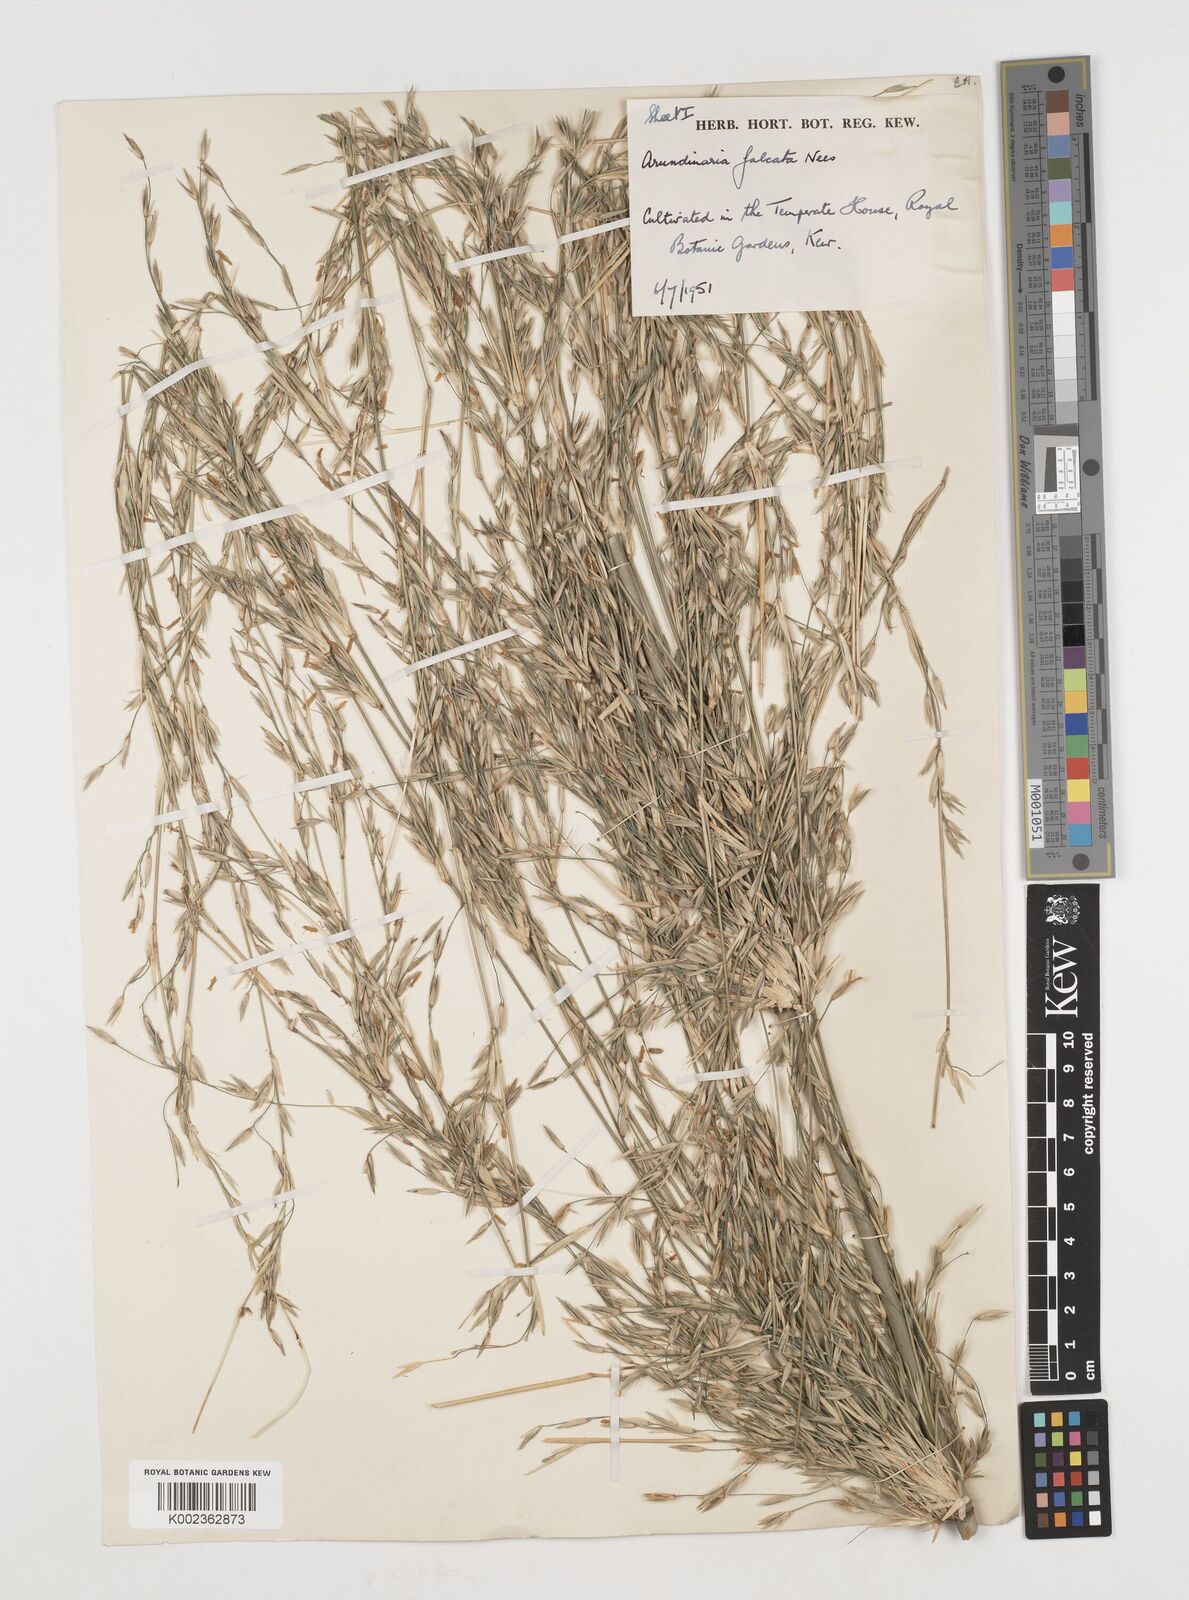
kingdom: Plantae
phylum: Tracheophyta
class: Liliopsida
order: Poales
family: Poaceae
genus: Himalayacalamus
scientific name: Himalayacalamus hookerianus
